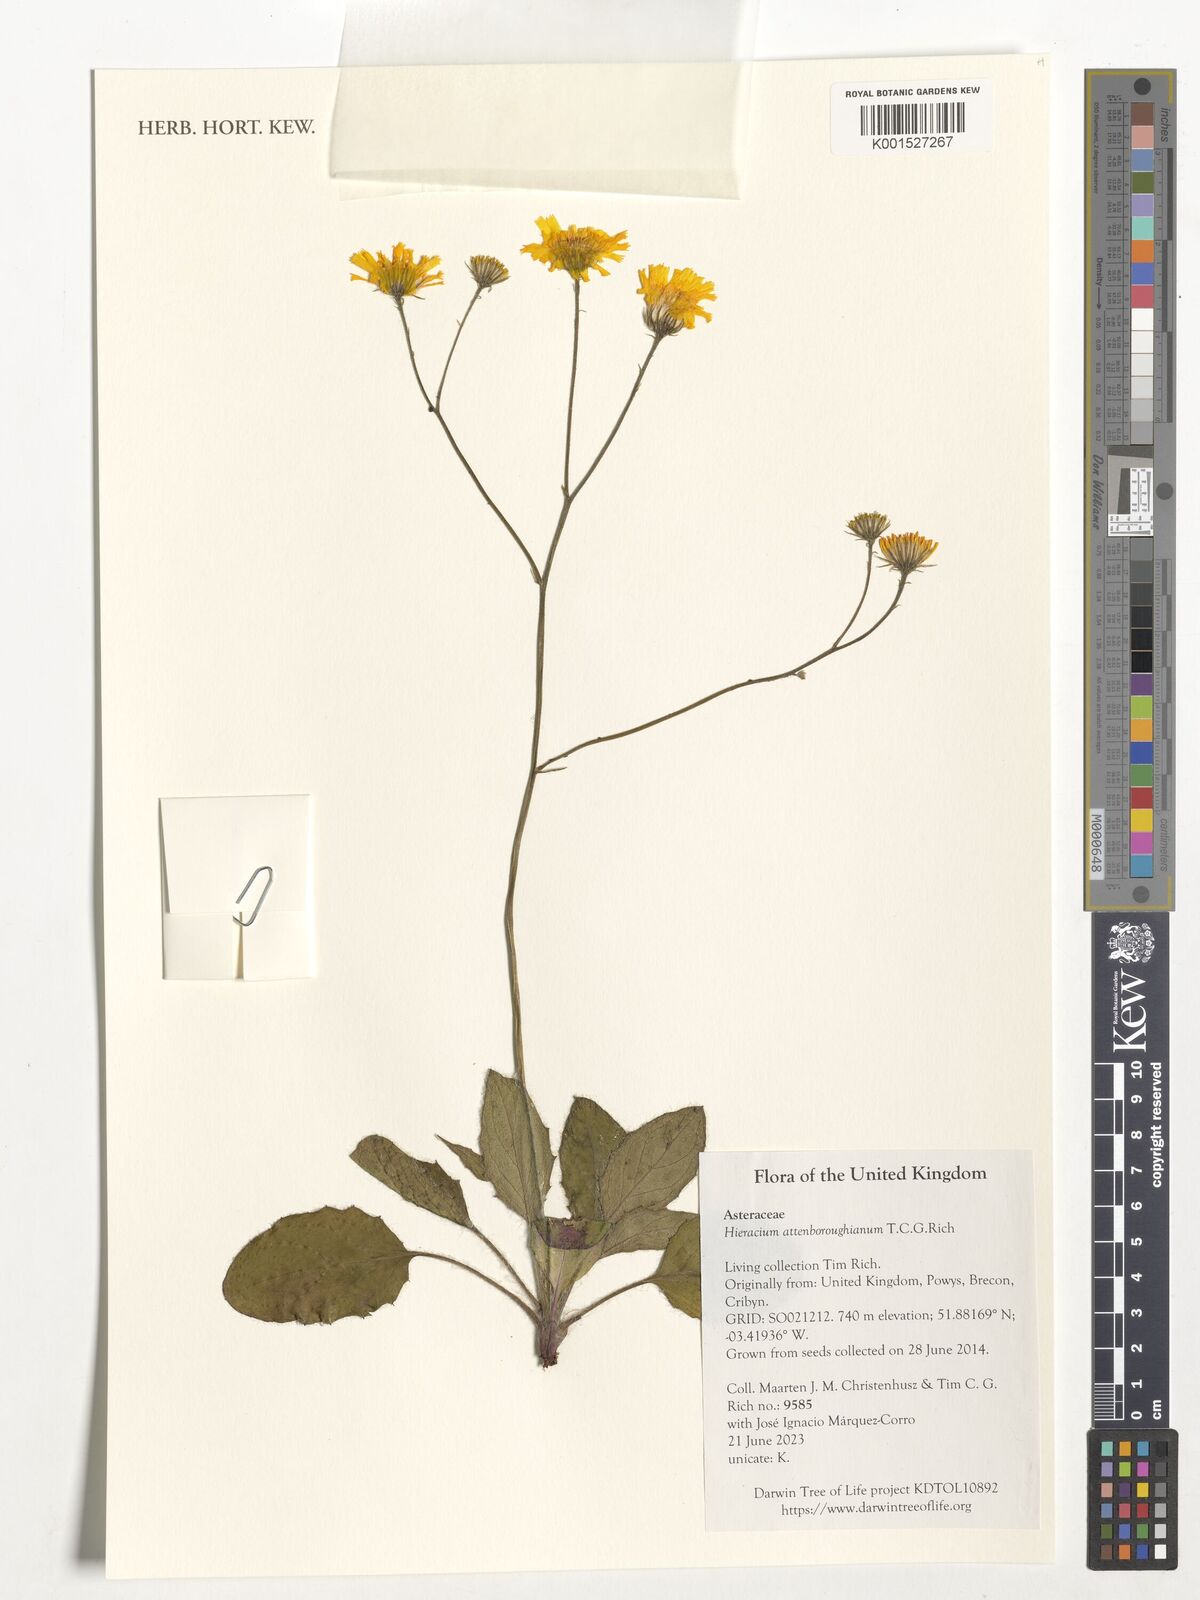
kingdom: Plantae
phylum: Tracheophyta
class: Magnoliopsida
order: Asterales
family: Asteraceae
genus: Hieracium
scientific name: Hieracium attenboroughianum
